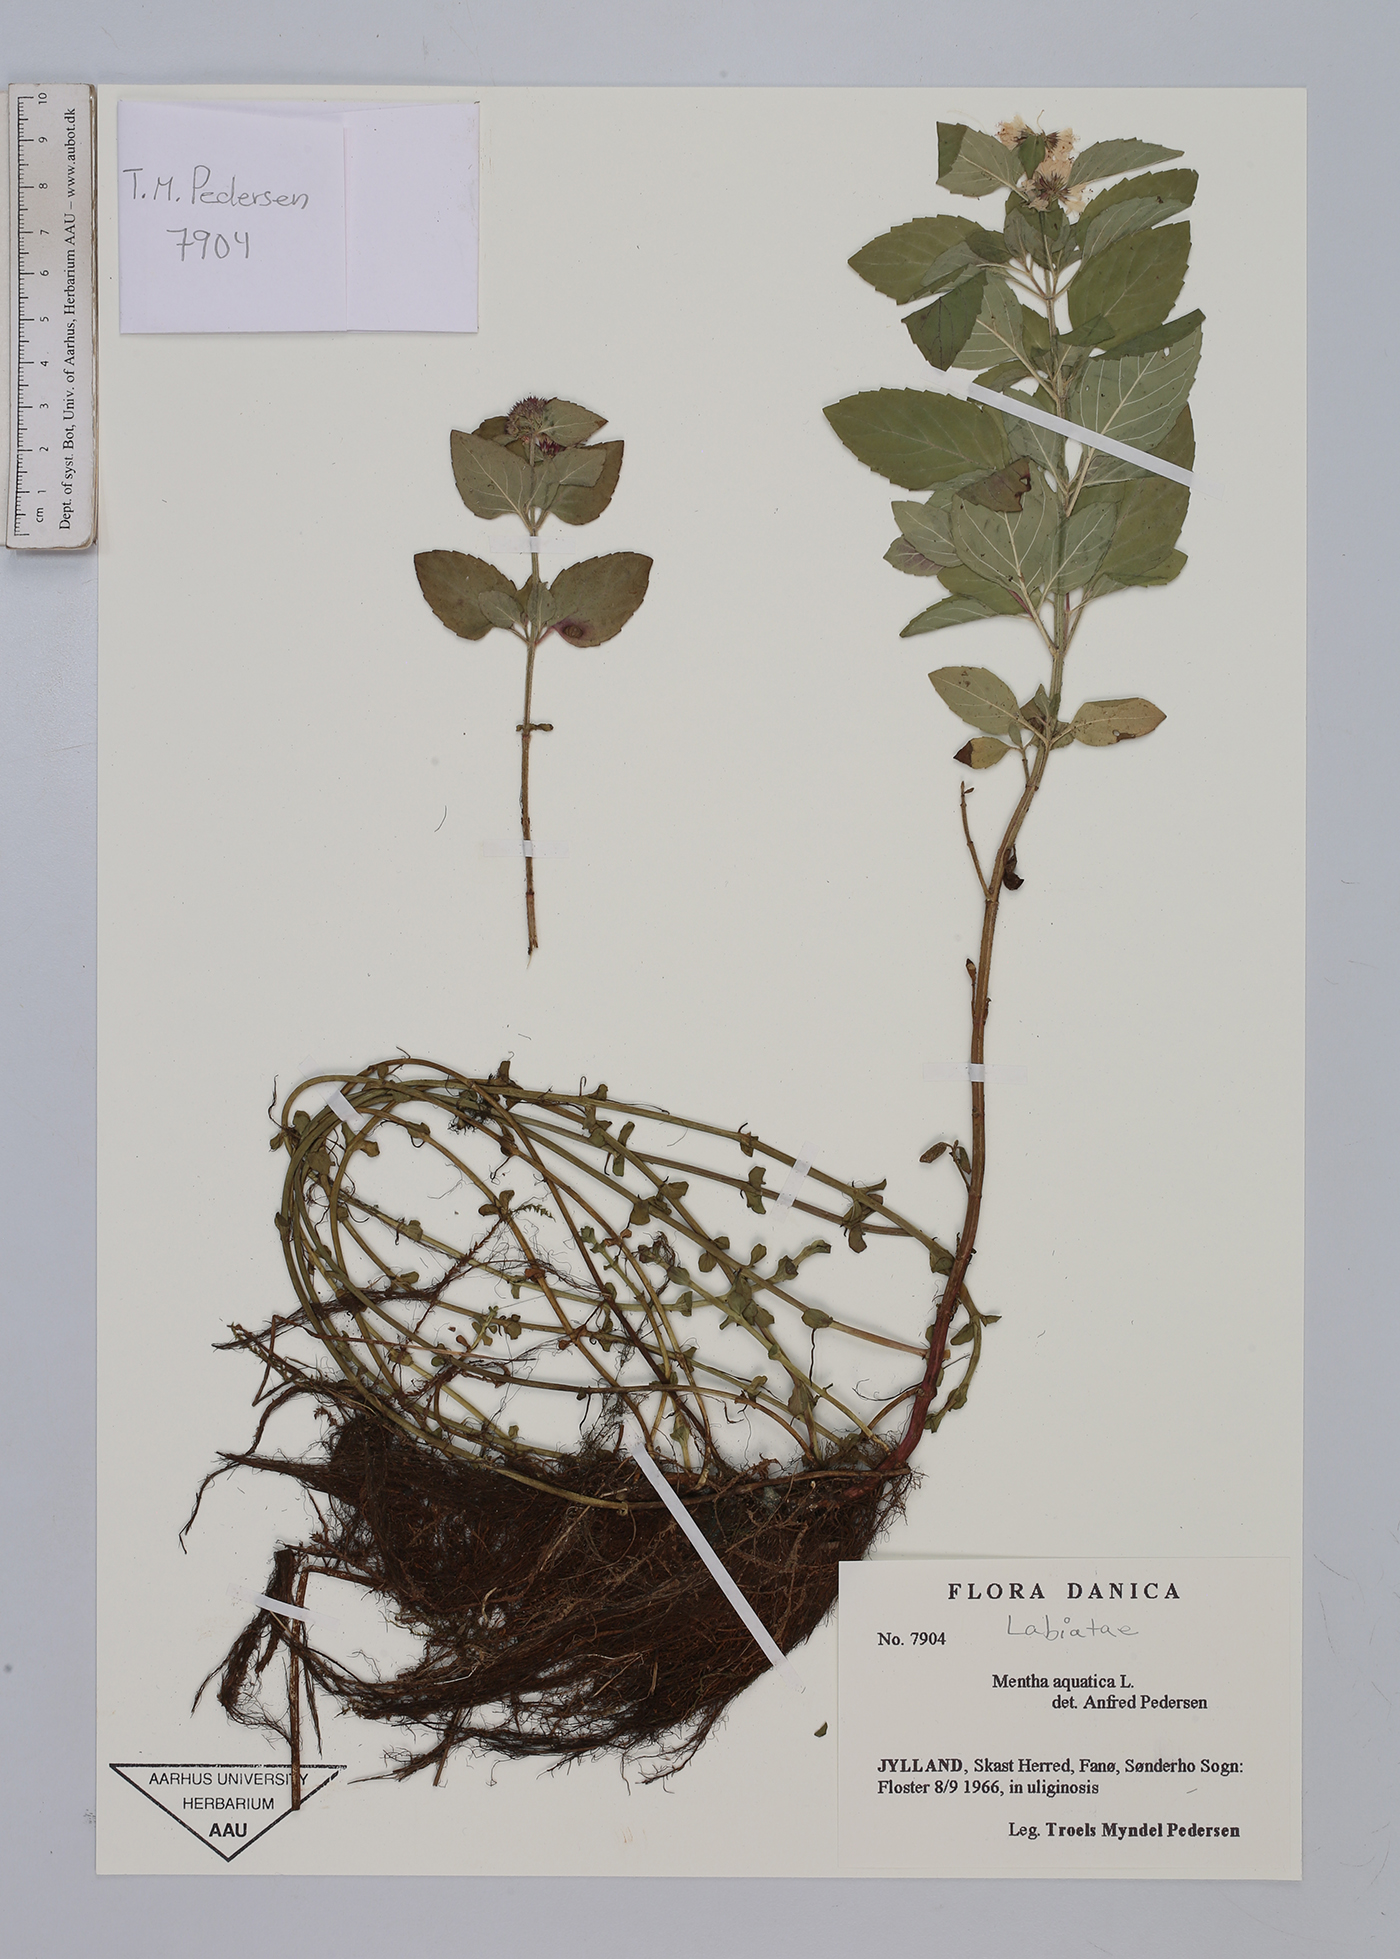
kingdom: Plantae
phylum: Tracheophyta
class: Magnoliopsida
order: Lamiales
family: Lamiaceae
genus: Mentha
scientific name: Mentha aquatica
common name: Water mint
